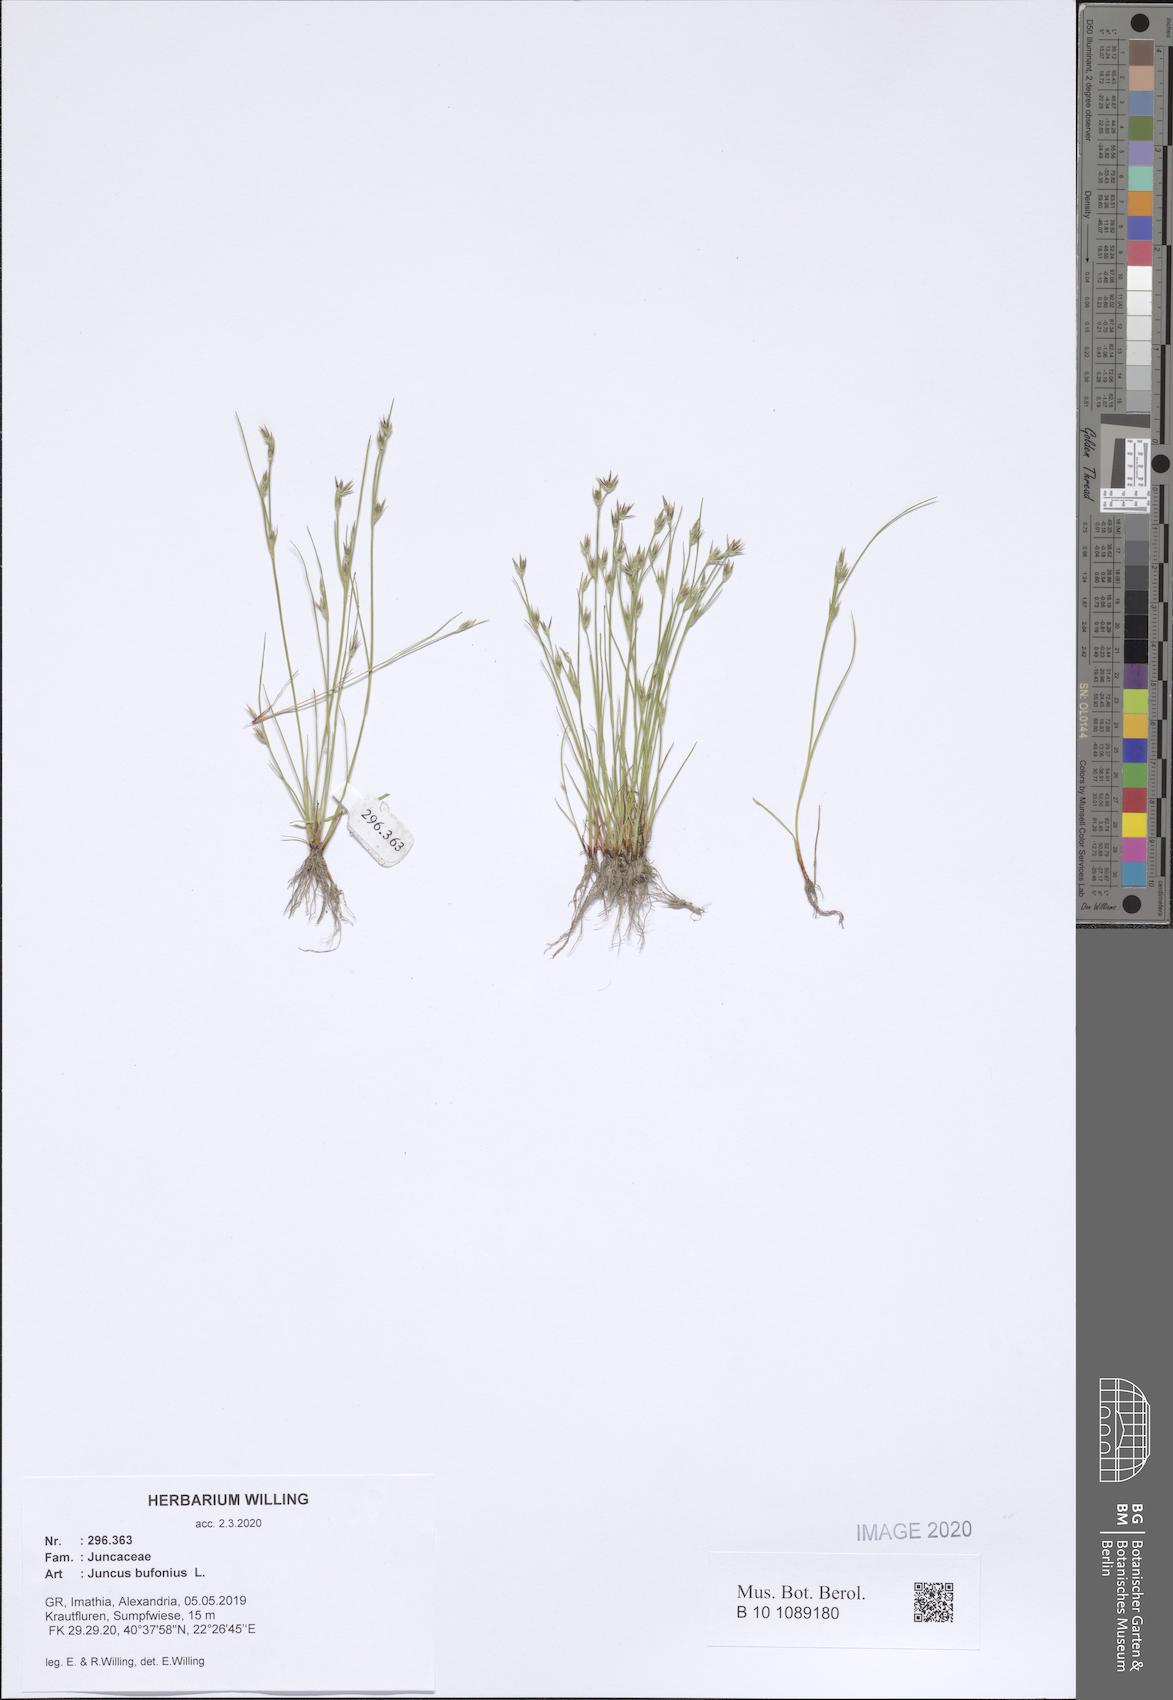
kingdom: Plantae
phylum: Tracheophyta
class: Liliopsida
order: Poales
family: Juncaceae
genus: Juncus
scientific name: Juncus bufonius
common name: Toad rush
